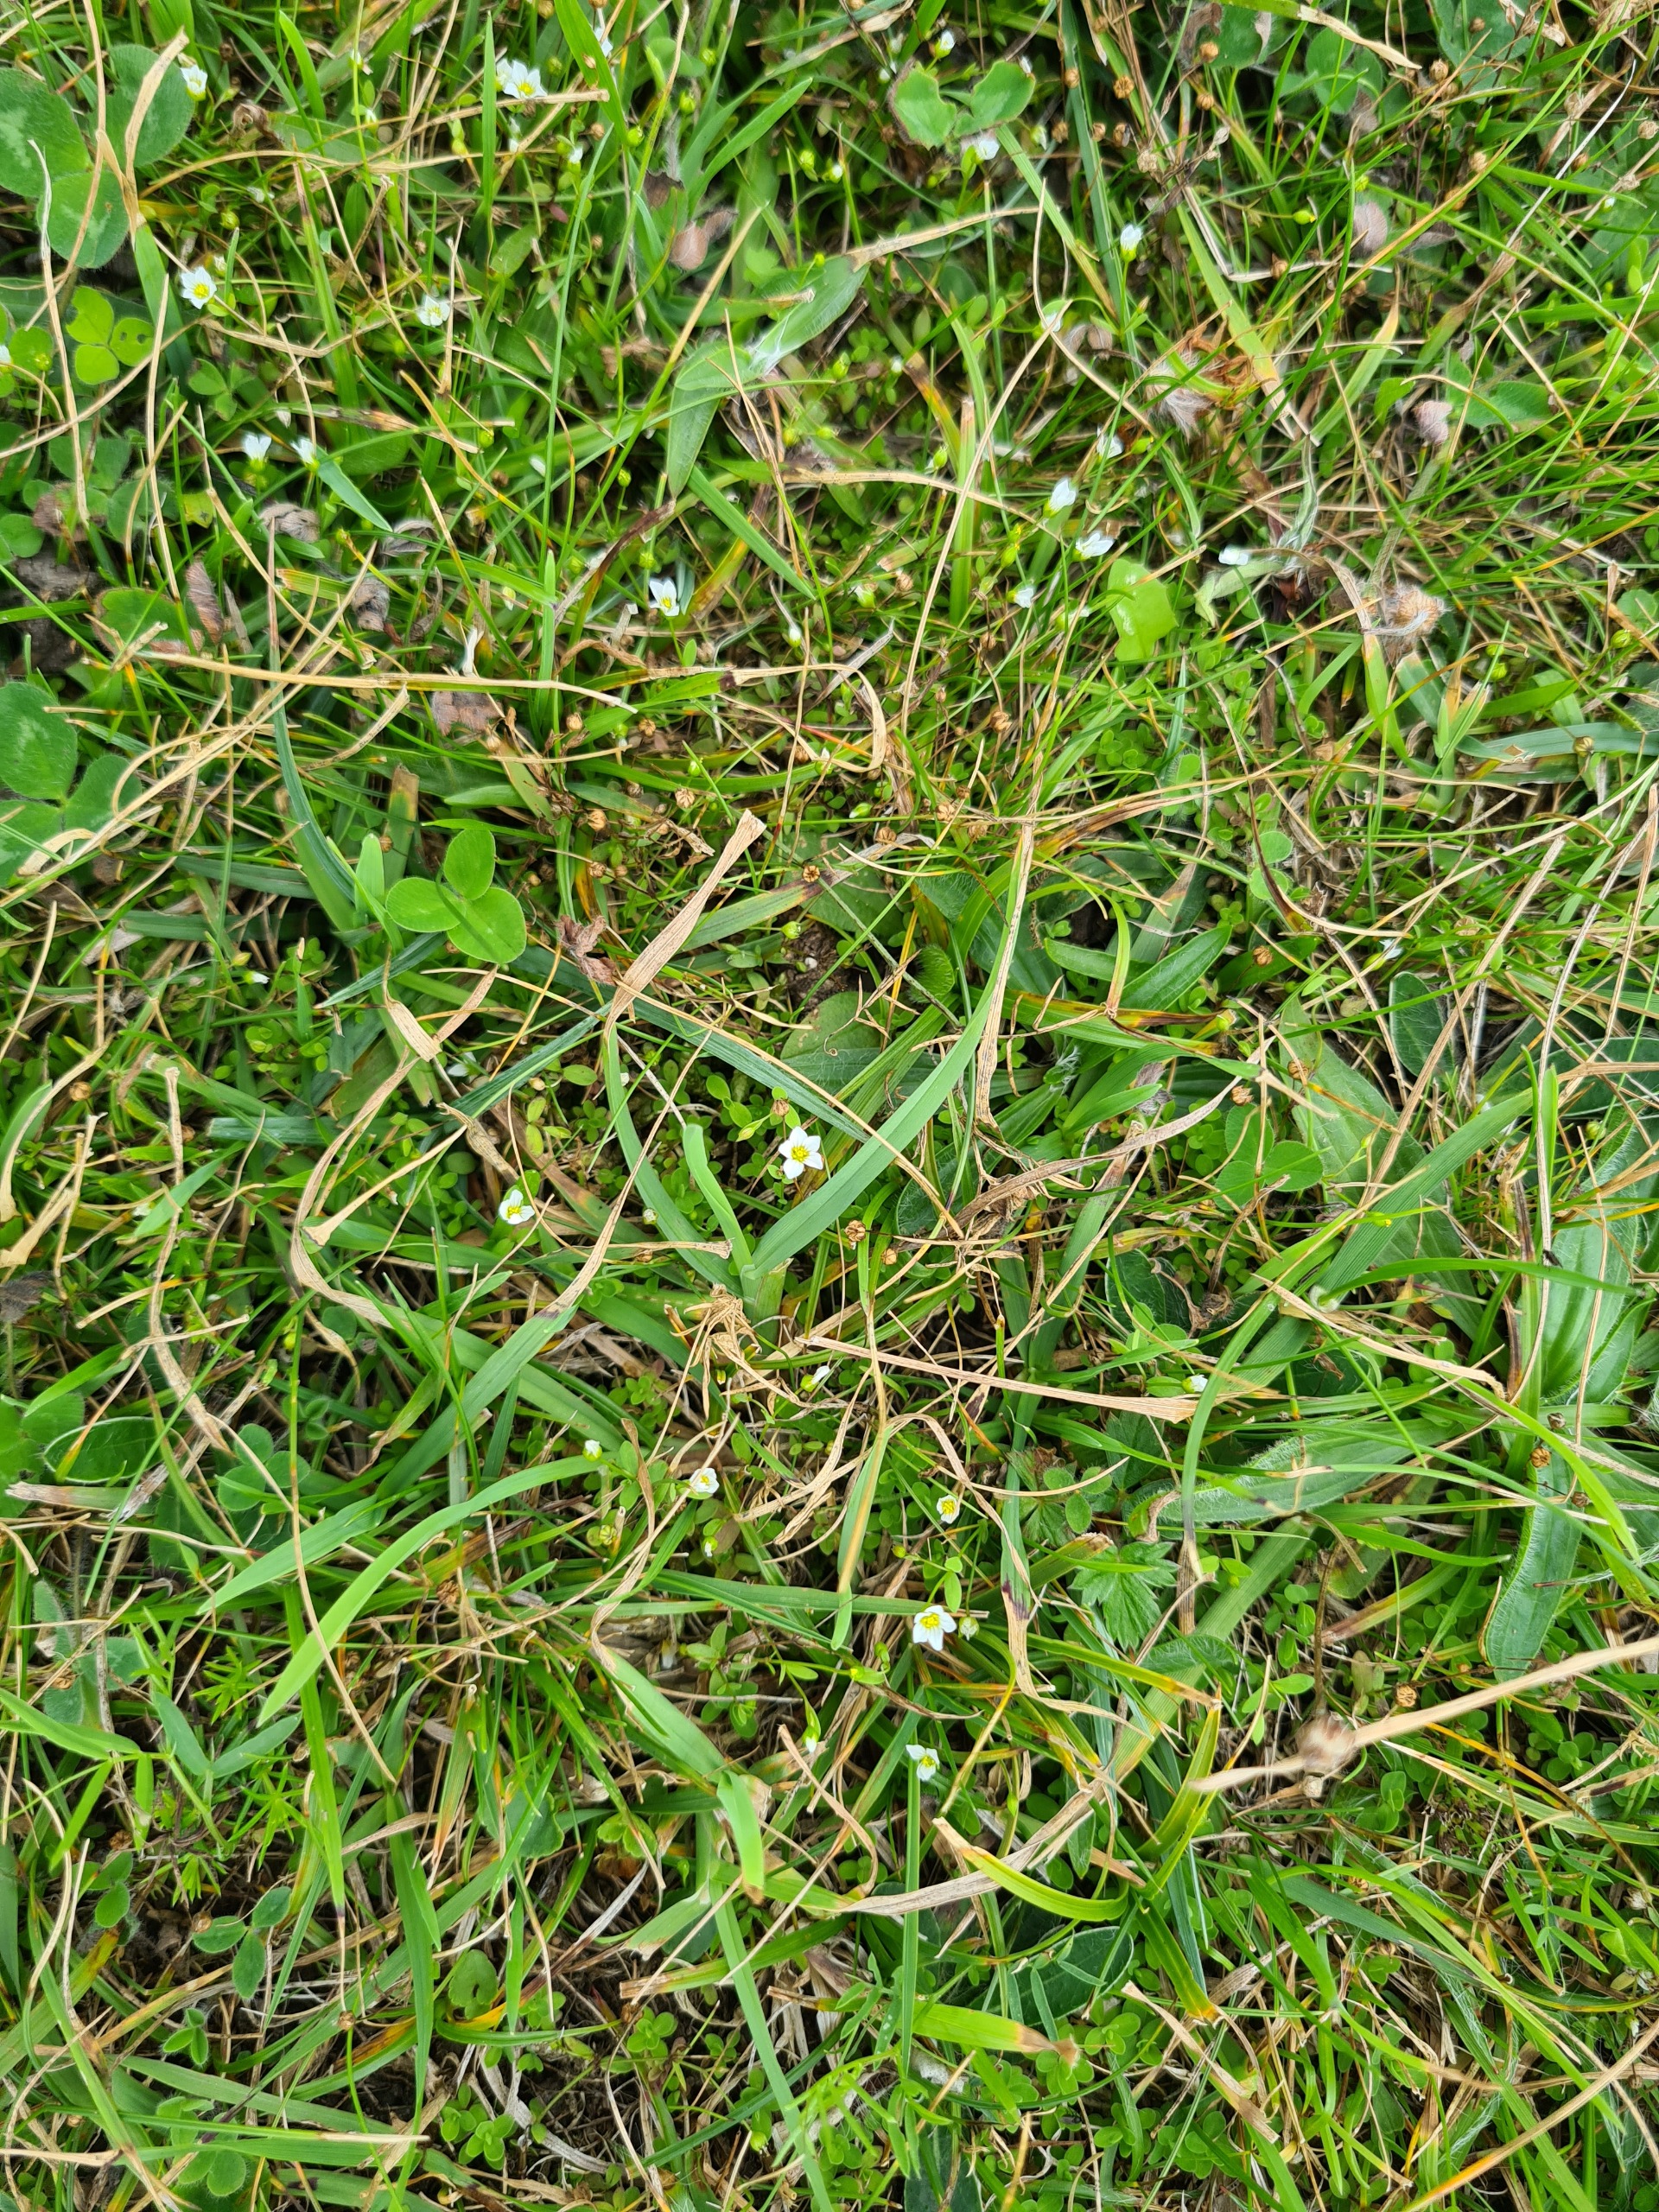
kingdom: Plantae
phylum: Tracheophyta
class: Magnoliopsida
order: Malpighiales
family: Linaceae
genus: Linum
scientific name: Linum catharticum
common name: Vild hør
